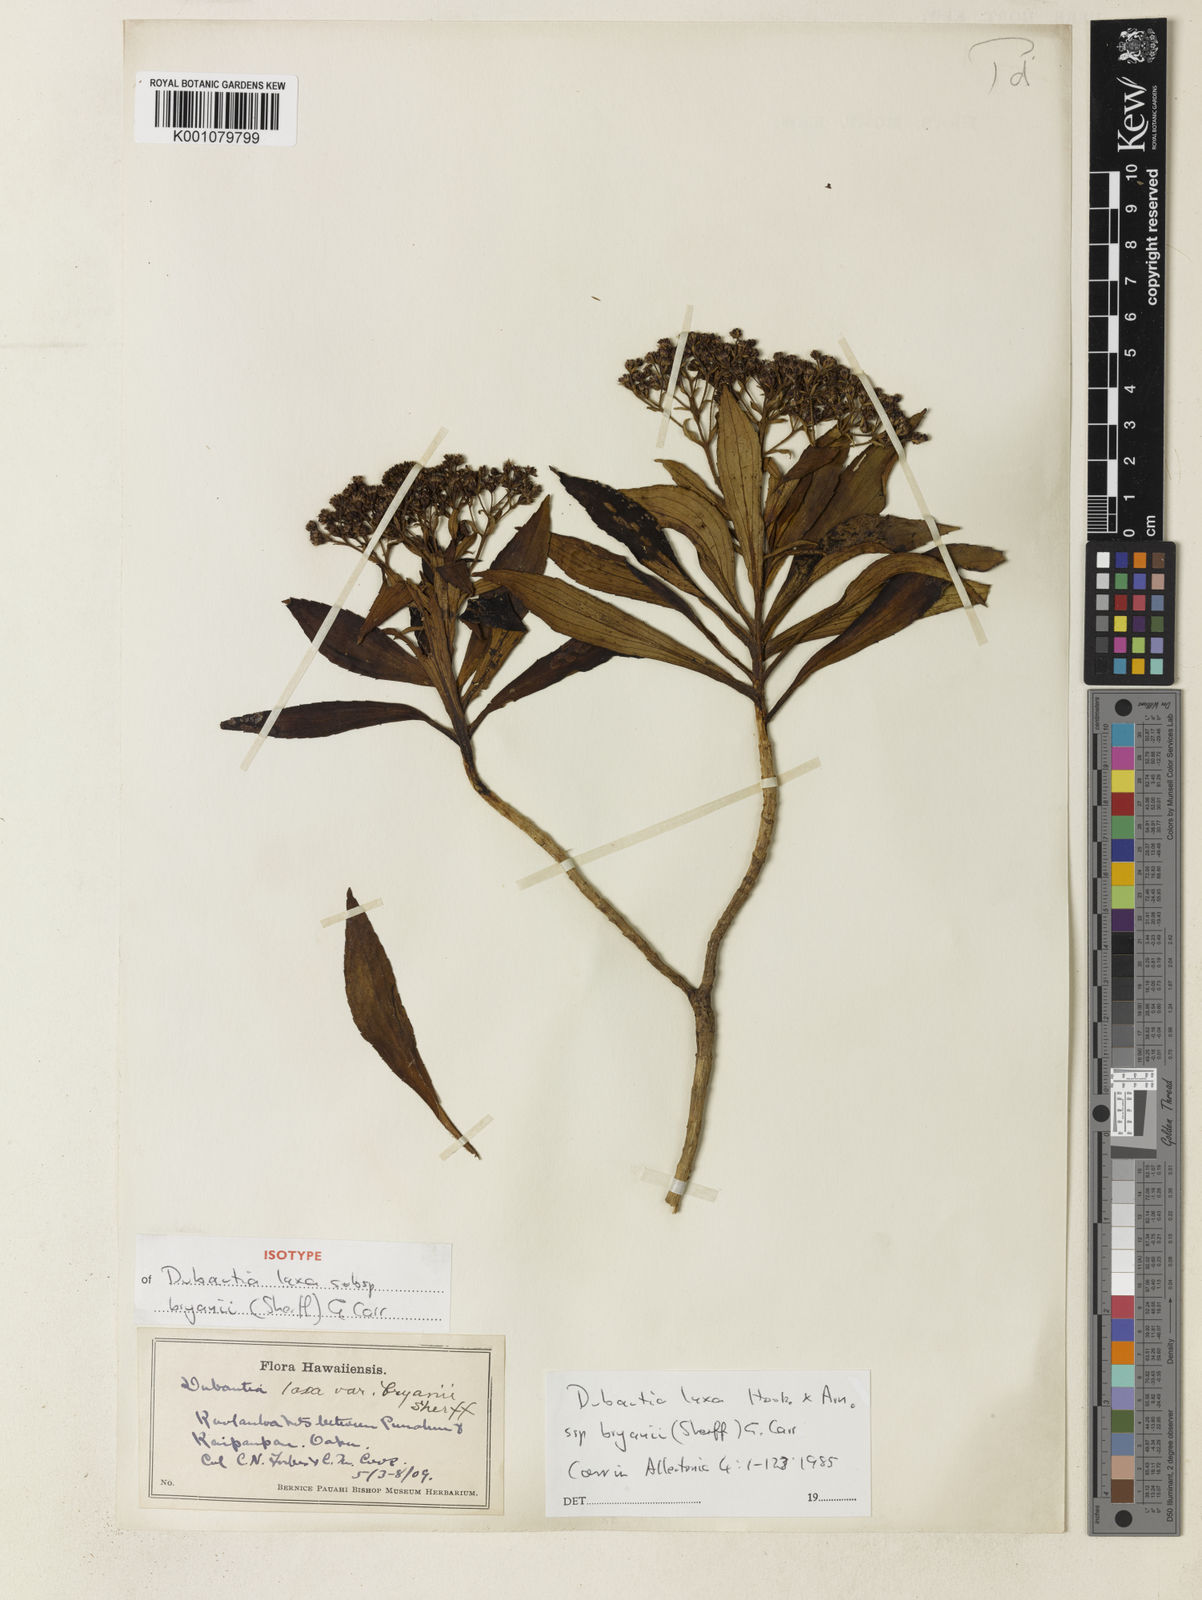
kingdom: Plantae
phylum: Tracheophyta
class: Magnoliopsida
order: Asterales
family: Asteraceae
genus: Dubautia
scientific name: Dubautia laxa
